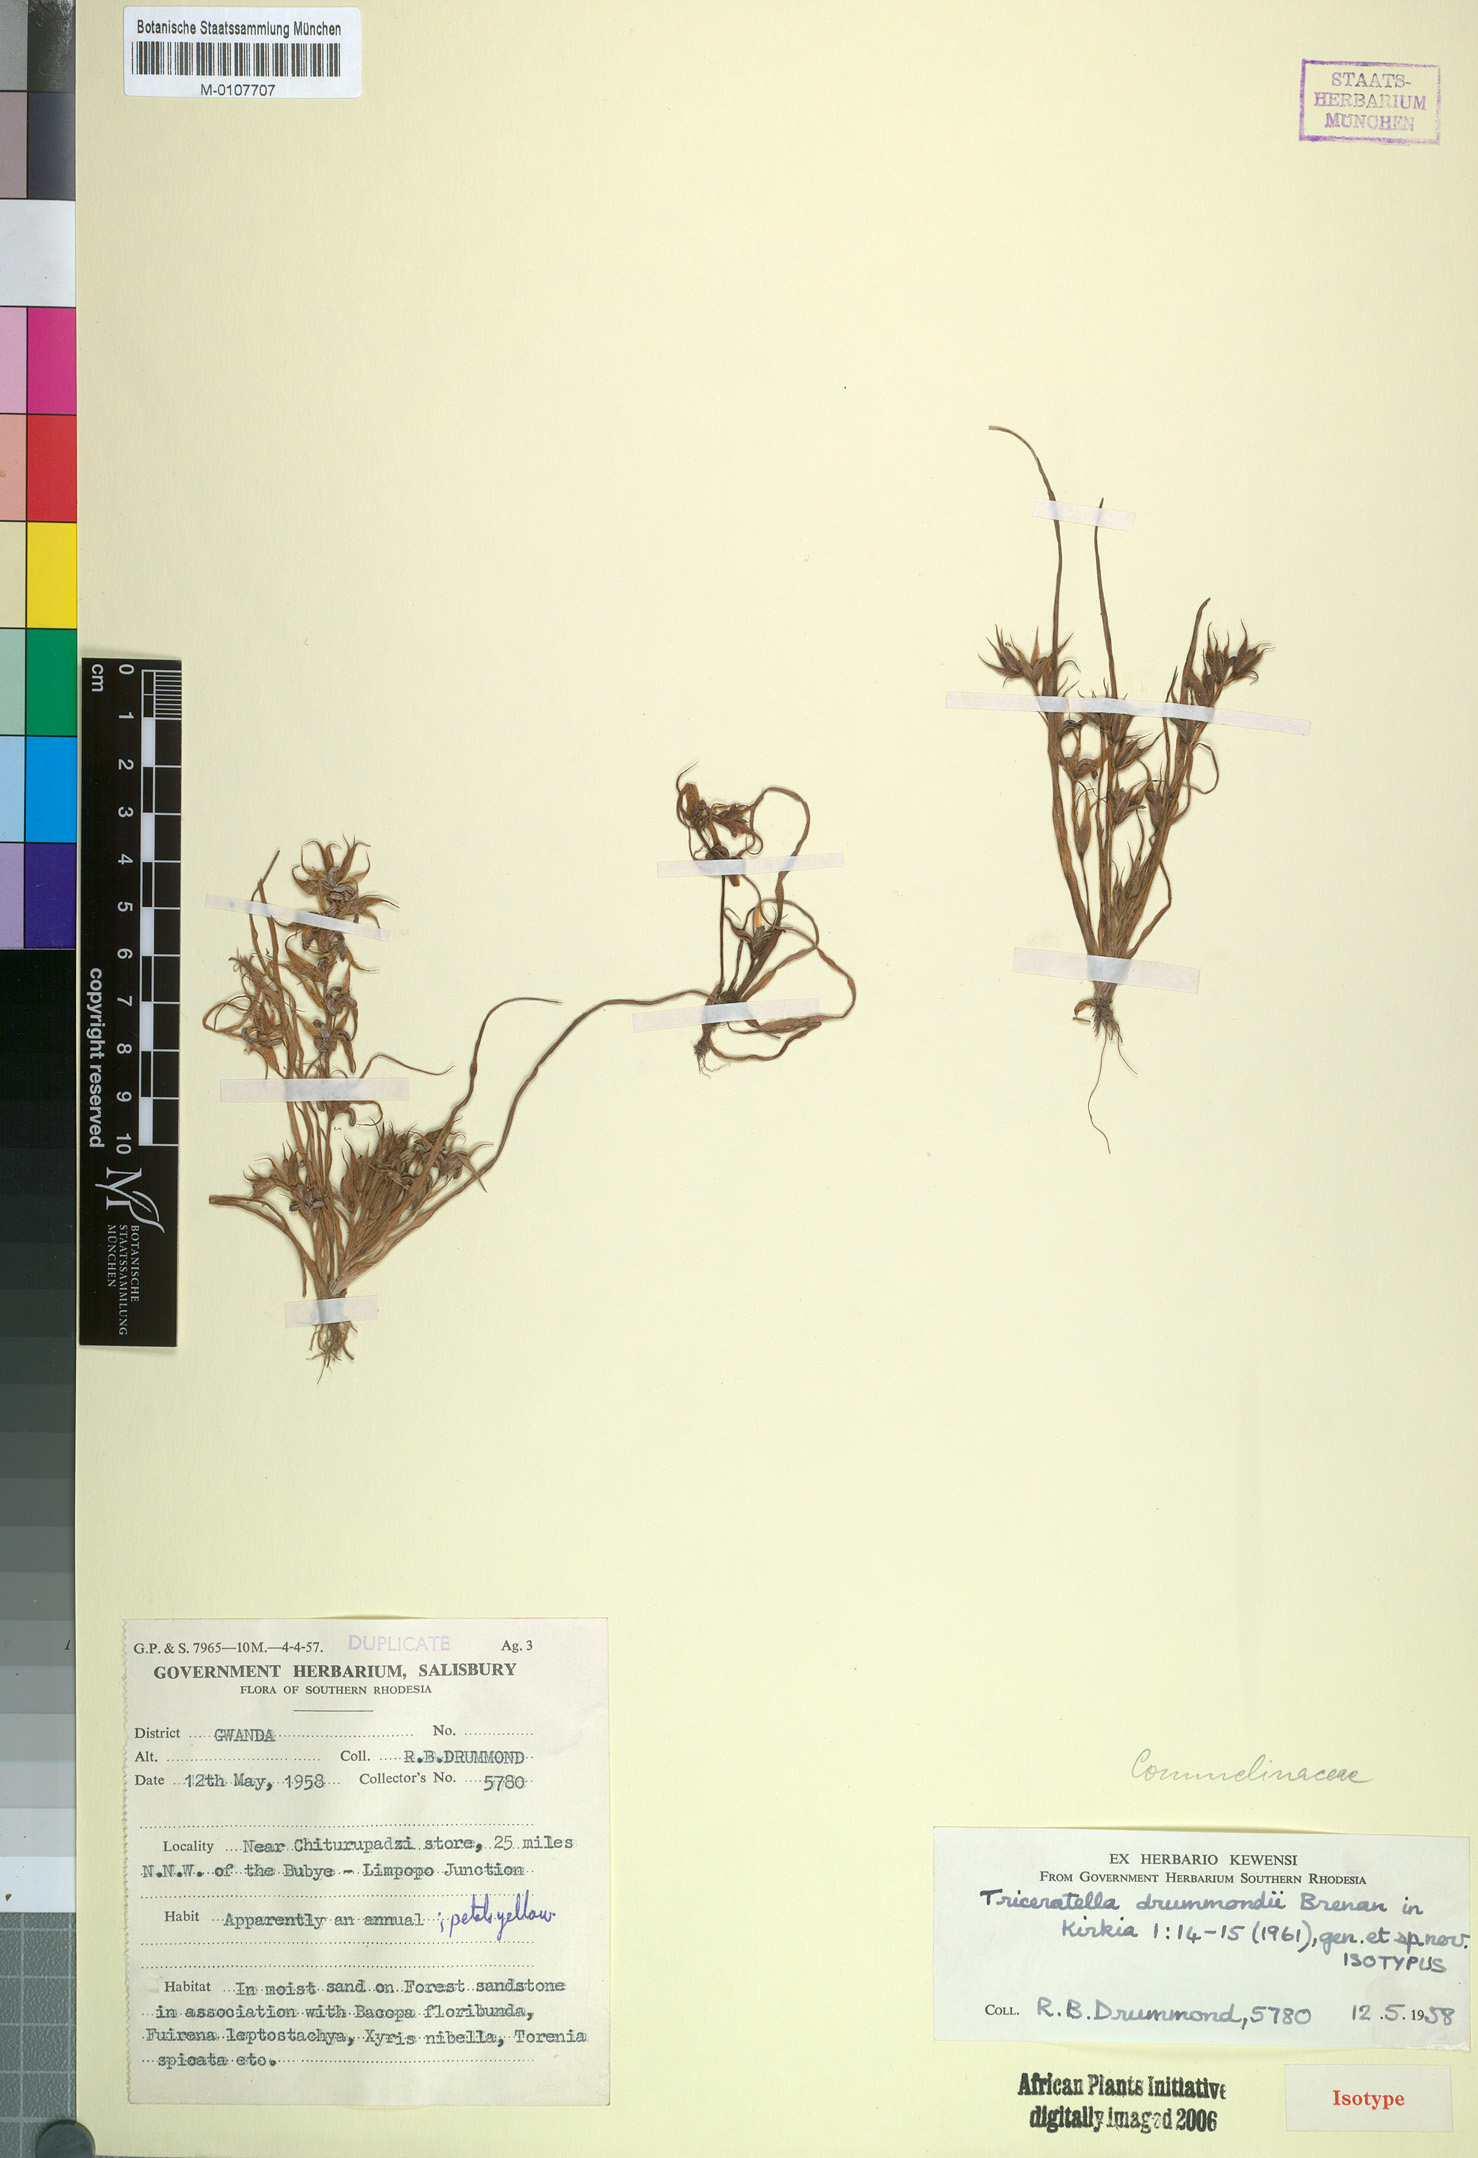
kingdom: Plantae
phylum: Tracheophyta
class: Liliopsida
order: Commelinales
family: Commelinaceae
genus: Triceratella
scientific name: Triceratella drummondii
